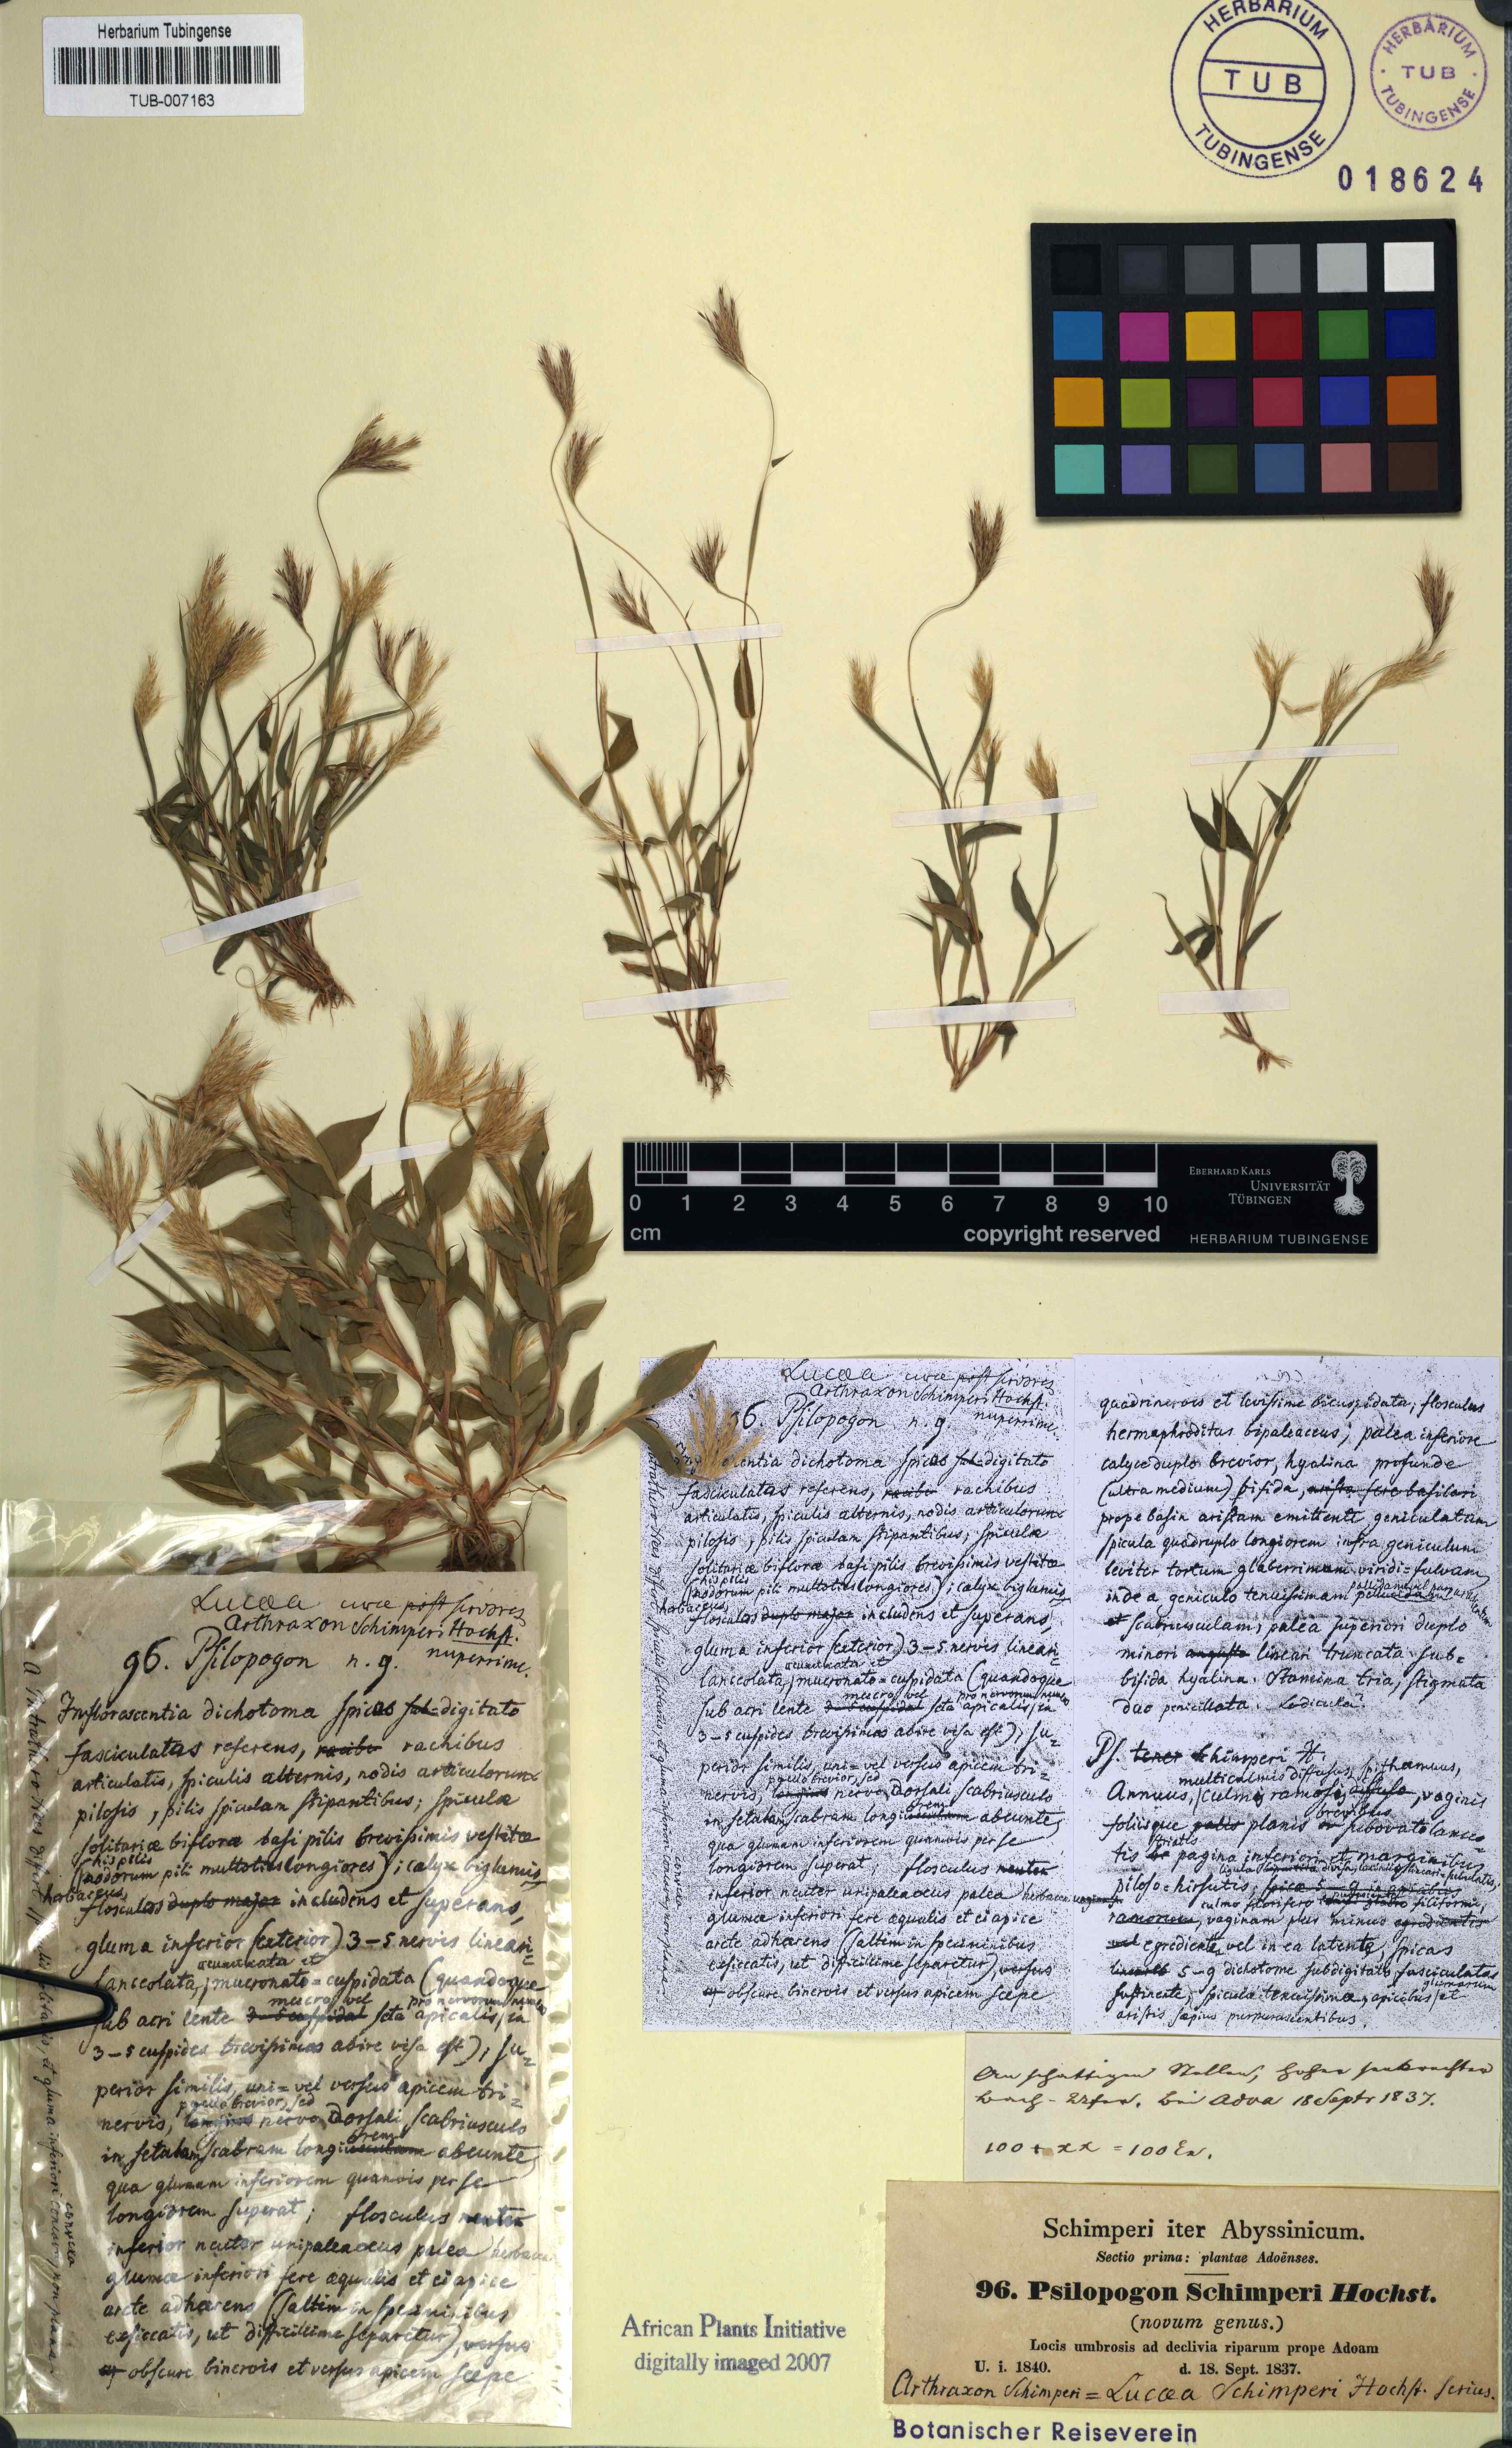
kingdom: Plantae
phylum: Tracheophyta
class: Liliopsida
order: Poales
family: Poaceae
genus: Arthraxon
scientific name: Arthraxon microphyllus
